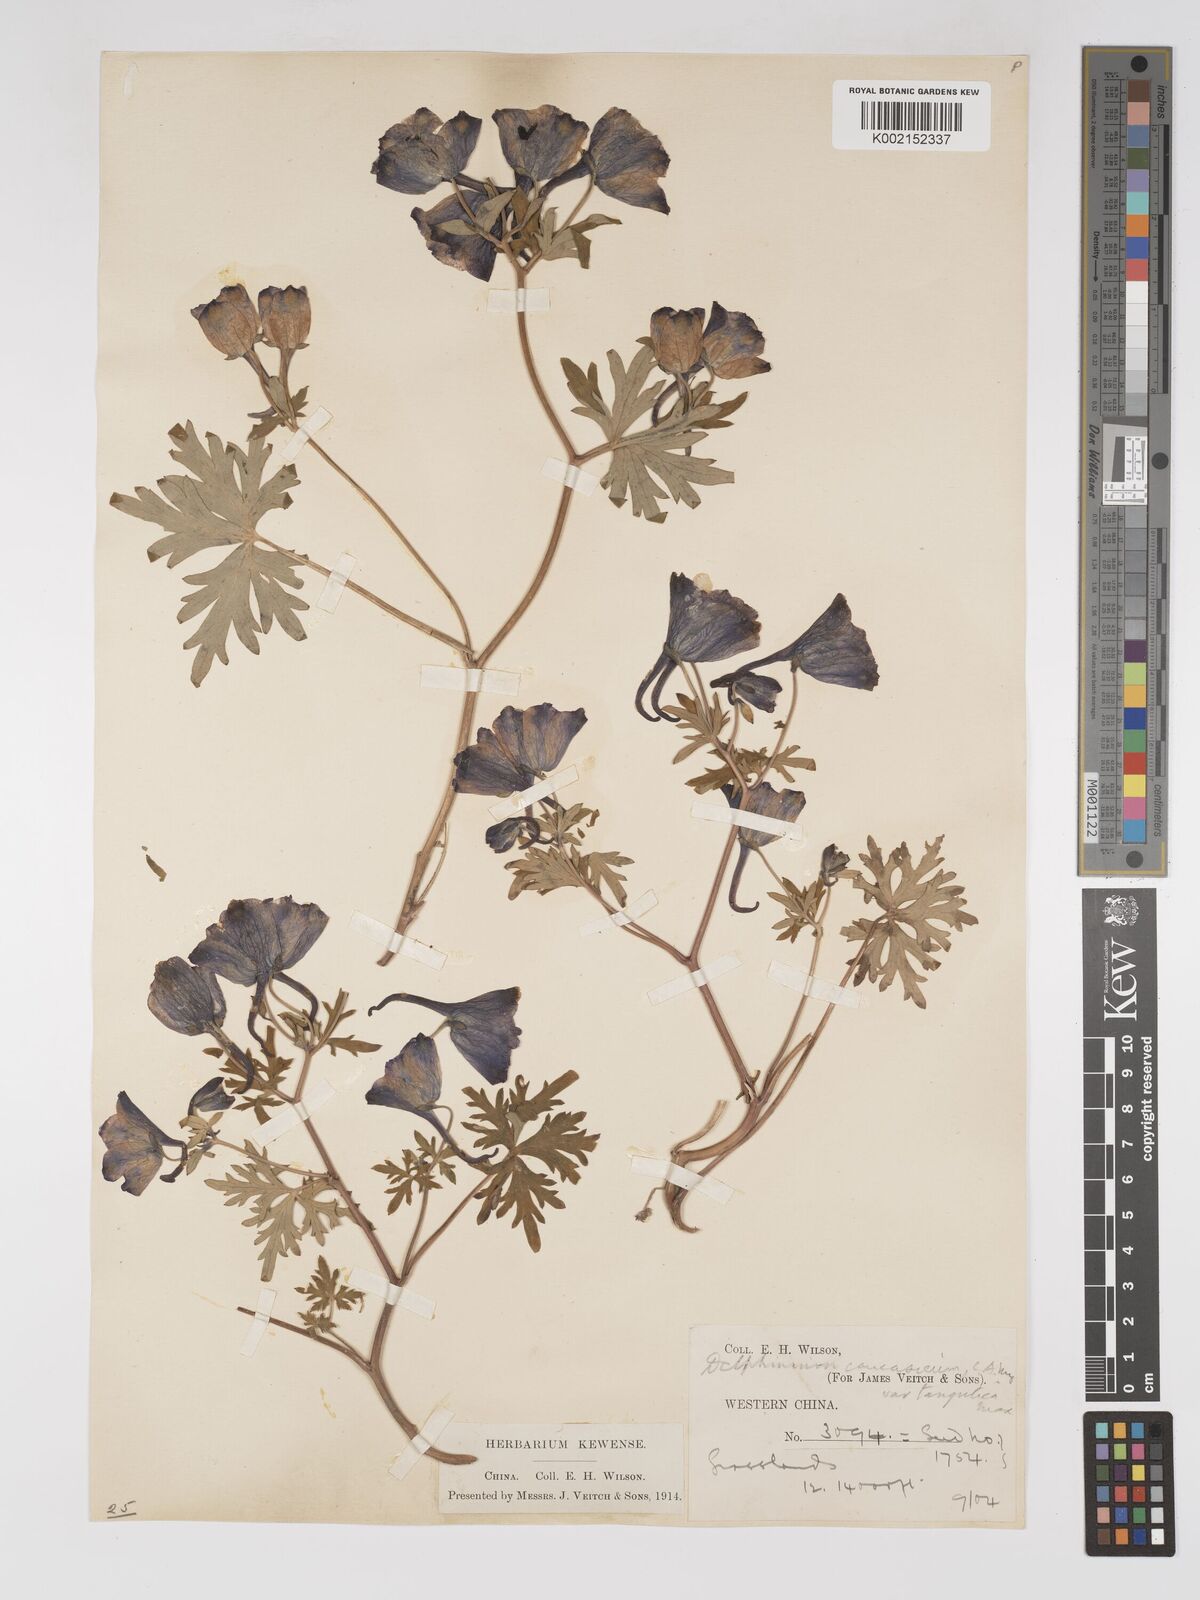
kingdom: Plantae
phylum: Tracheophyta
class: Magnoliopsida
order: Ranunculales
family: Ranunculaceae
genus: Delphinium
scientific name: Delphinium pylzowii
